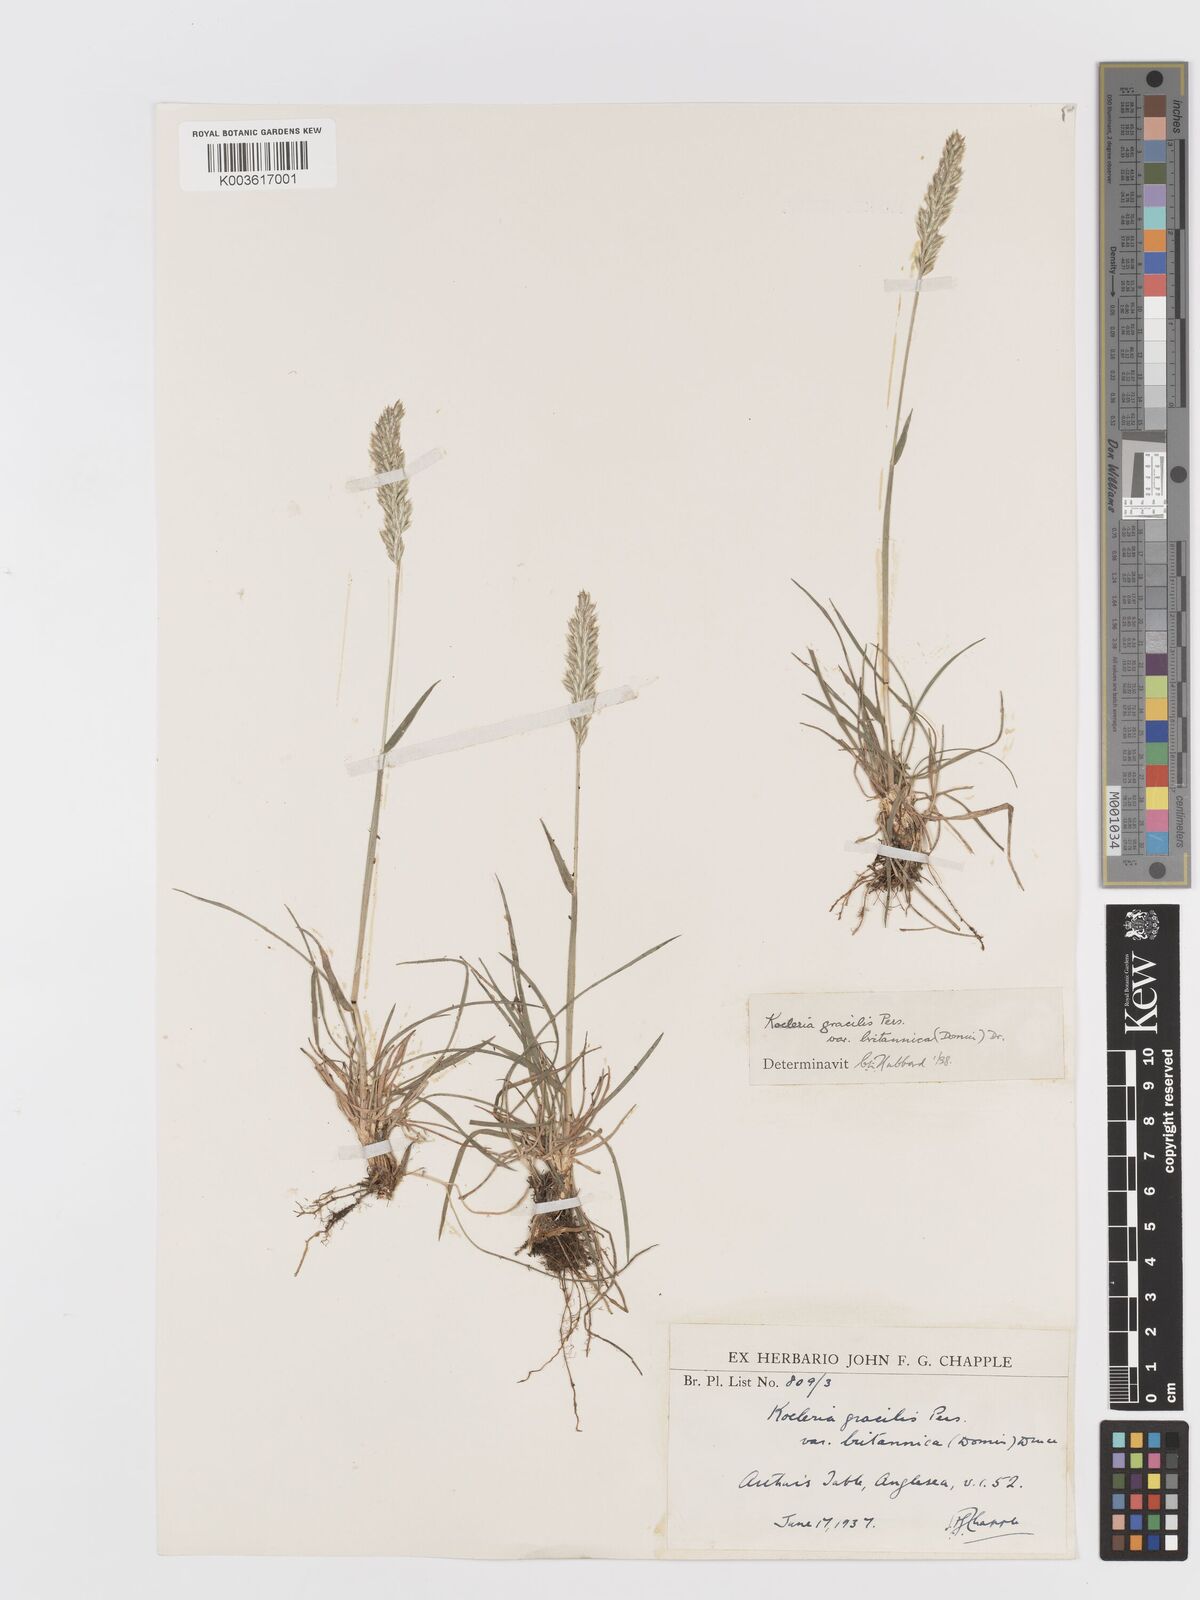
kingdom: Plantae
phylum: Tracheophyta
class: Liliopsida
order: Poales
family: Poaceae
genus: Koeleria
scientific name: Koeleria macrantha
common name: Crested hair-grass
